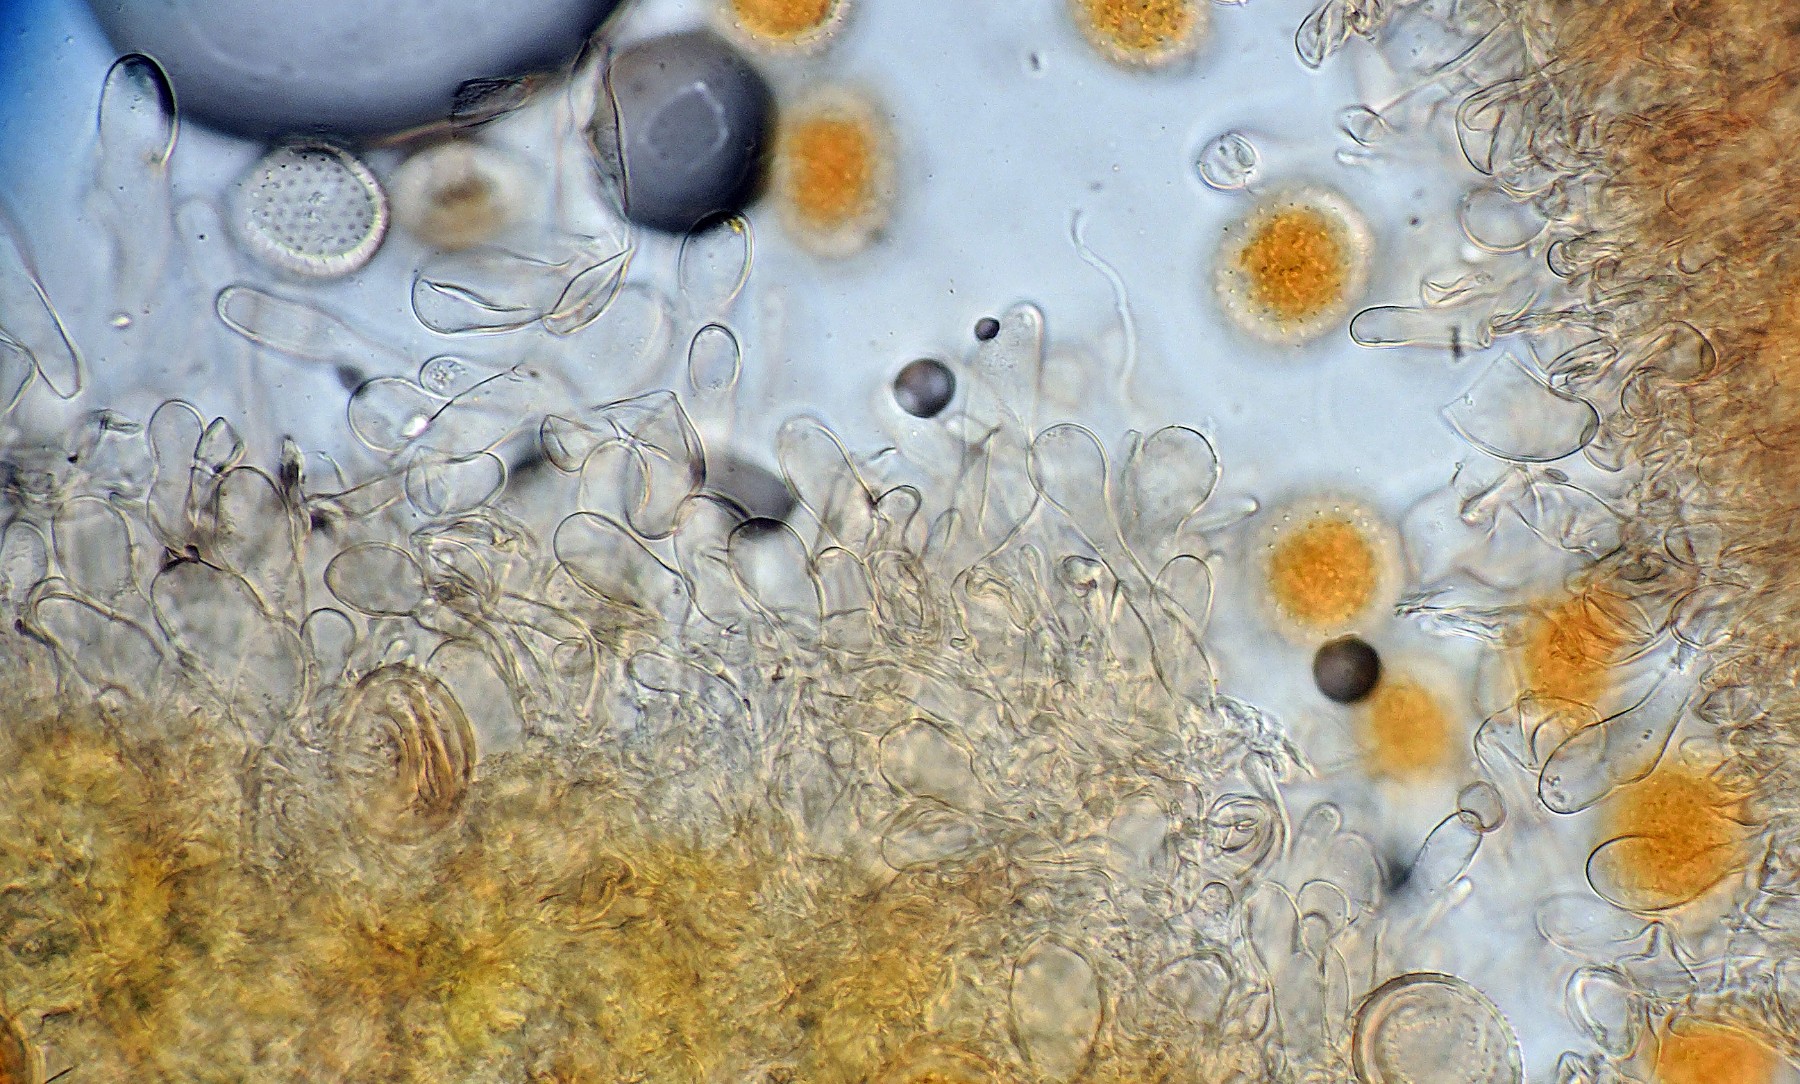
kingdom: Fungi
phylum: Basidiomycota
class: Pucciniomycetes
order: Pucciniales
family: Pucciniaceae
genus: Puccinia
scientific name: Puccinia
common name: tvecellerust
